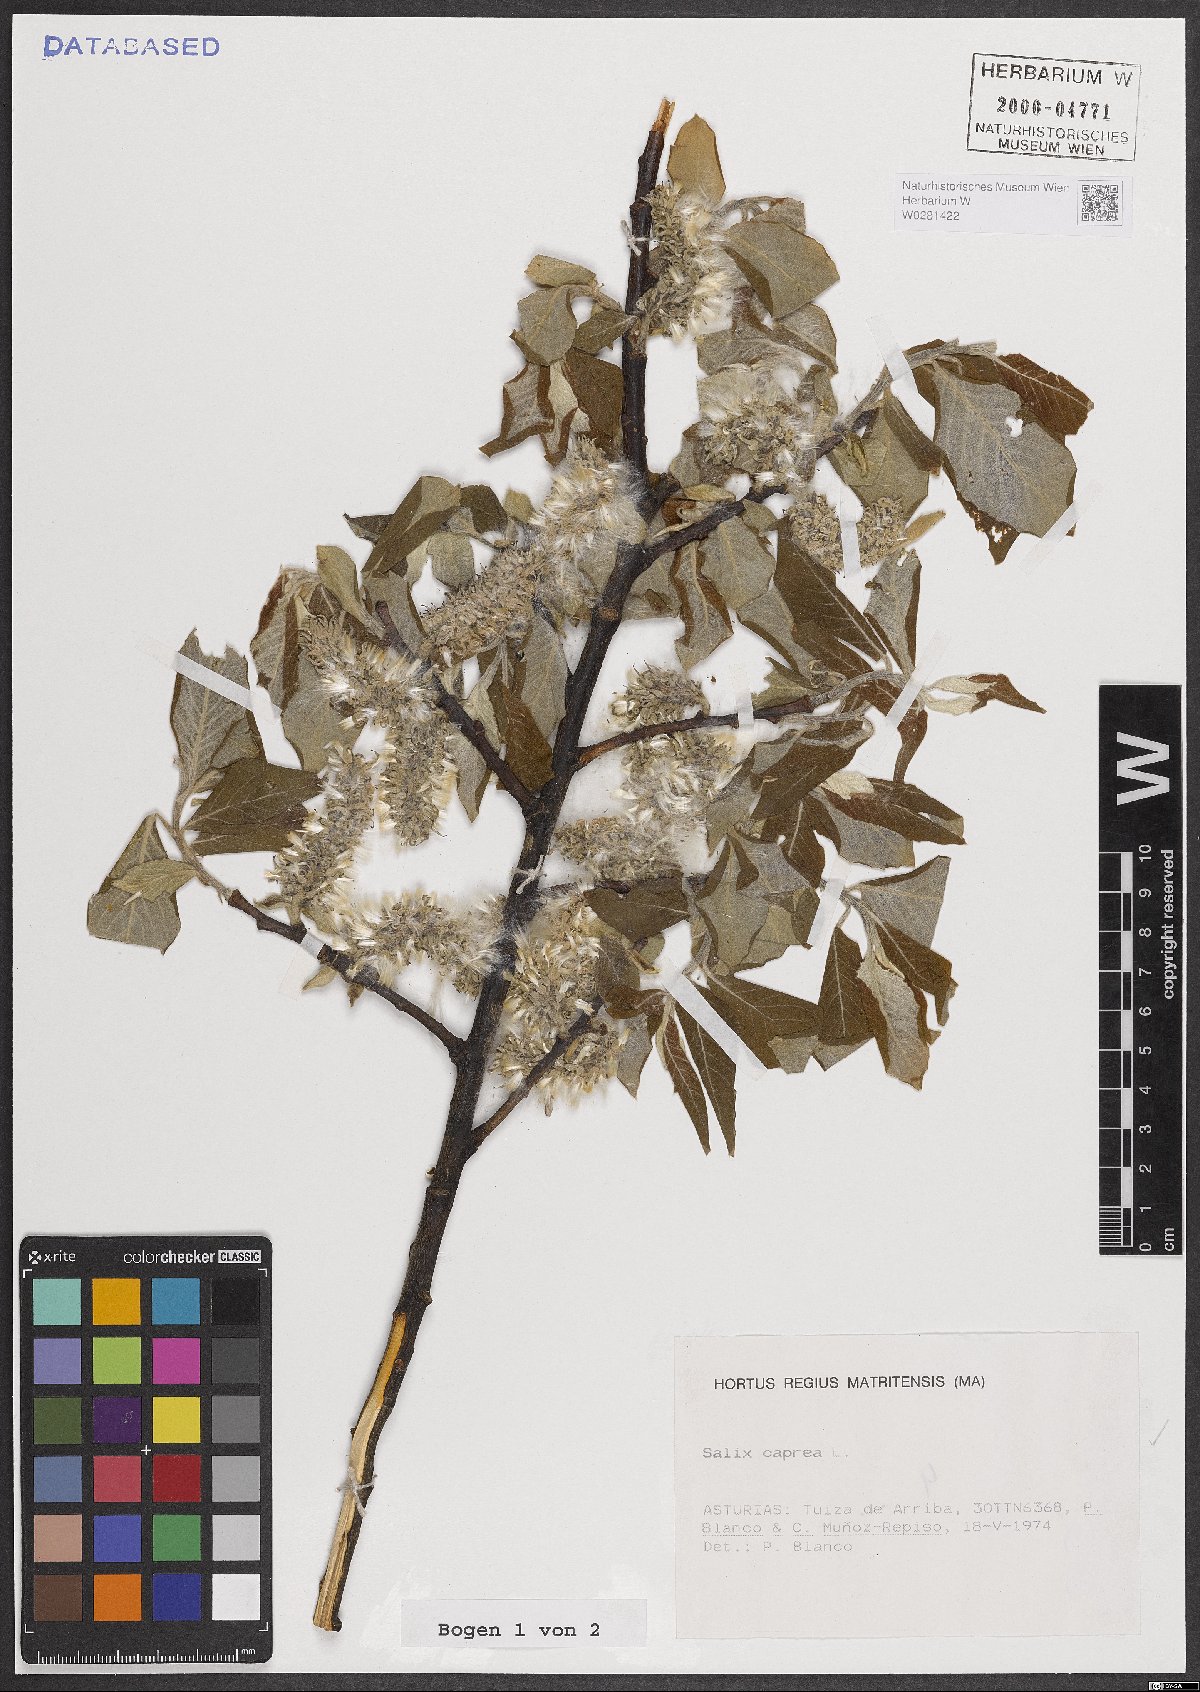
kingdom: Plantae
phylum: Tracheophyta
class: Magnoliopsida
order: Malpighiales
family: Salicaceae
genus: Salix
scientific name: Salix caprea
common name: Goat willow
